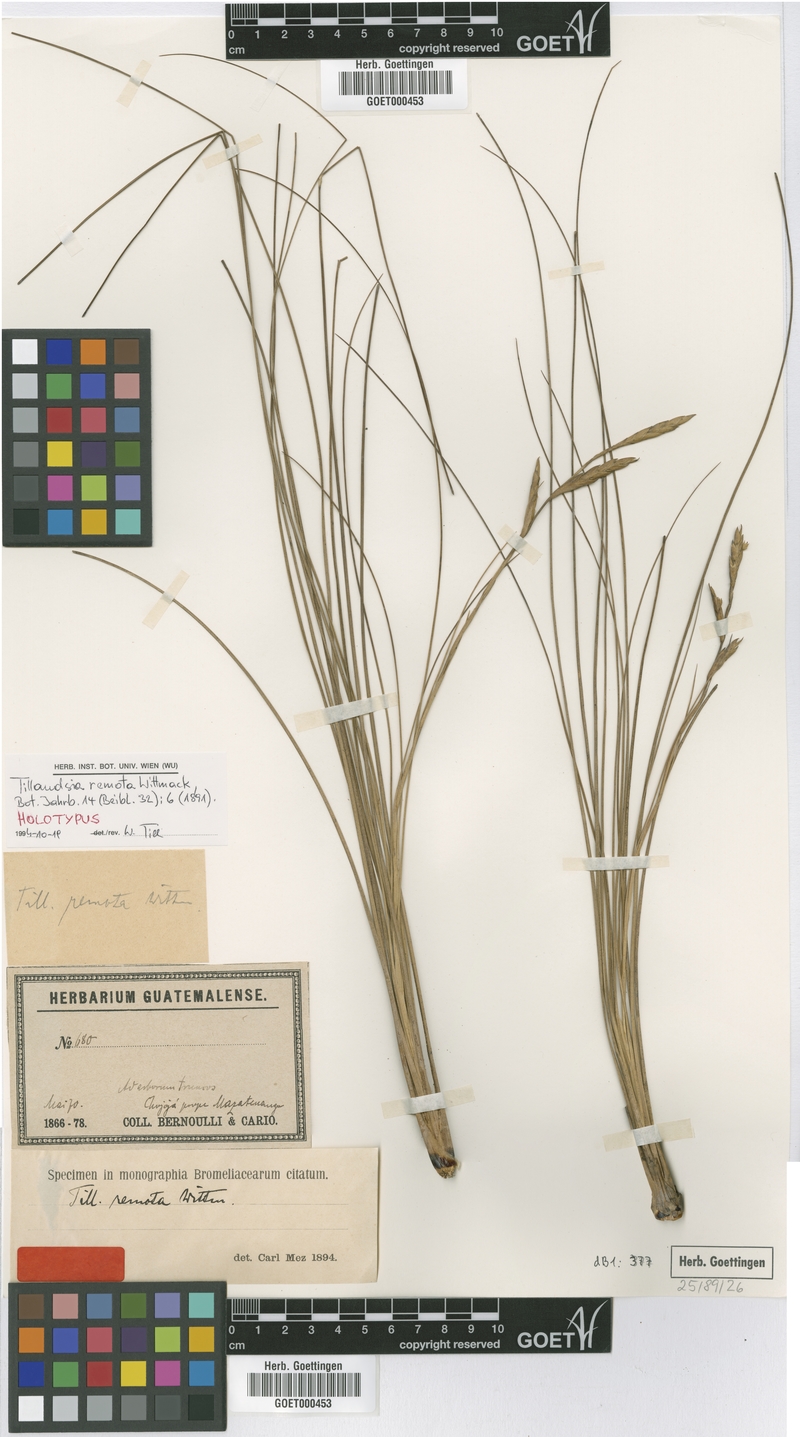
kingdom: Plantae
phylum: Tracheophyta
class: Liliopsida
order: Poales
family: Bromeliaceae
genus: Tillandsia
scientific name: Tillandsia remota
